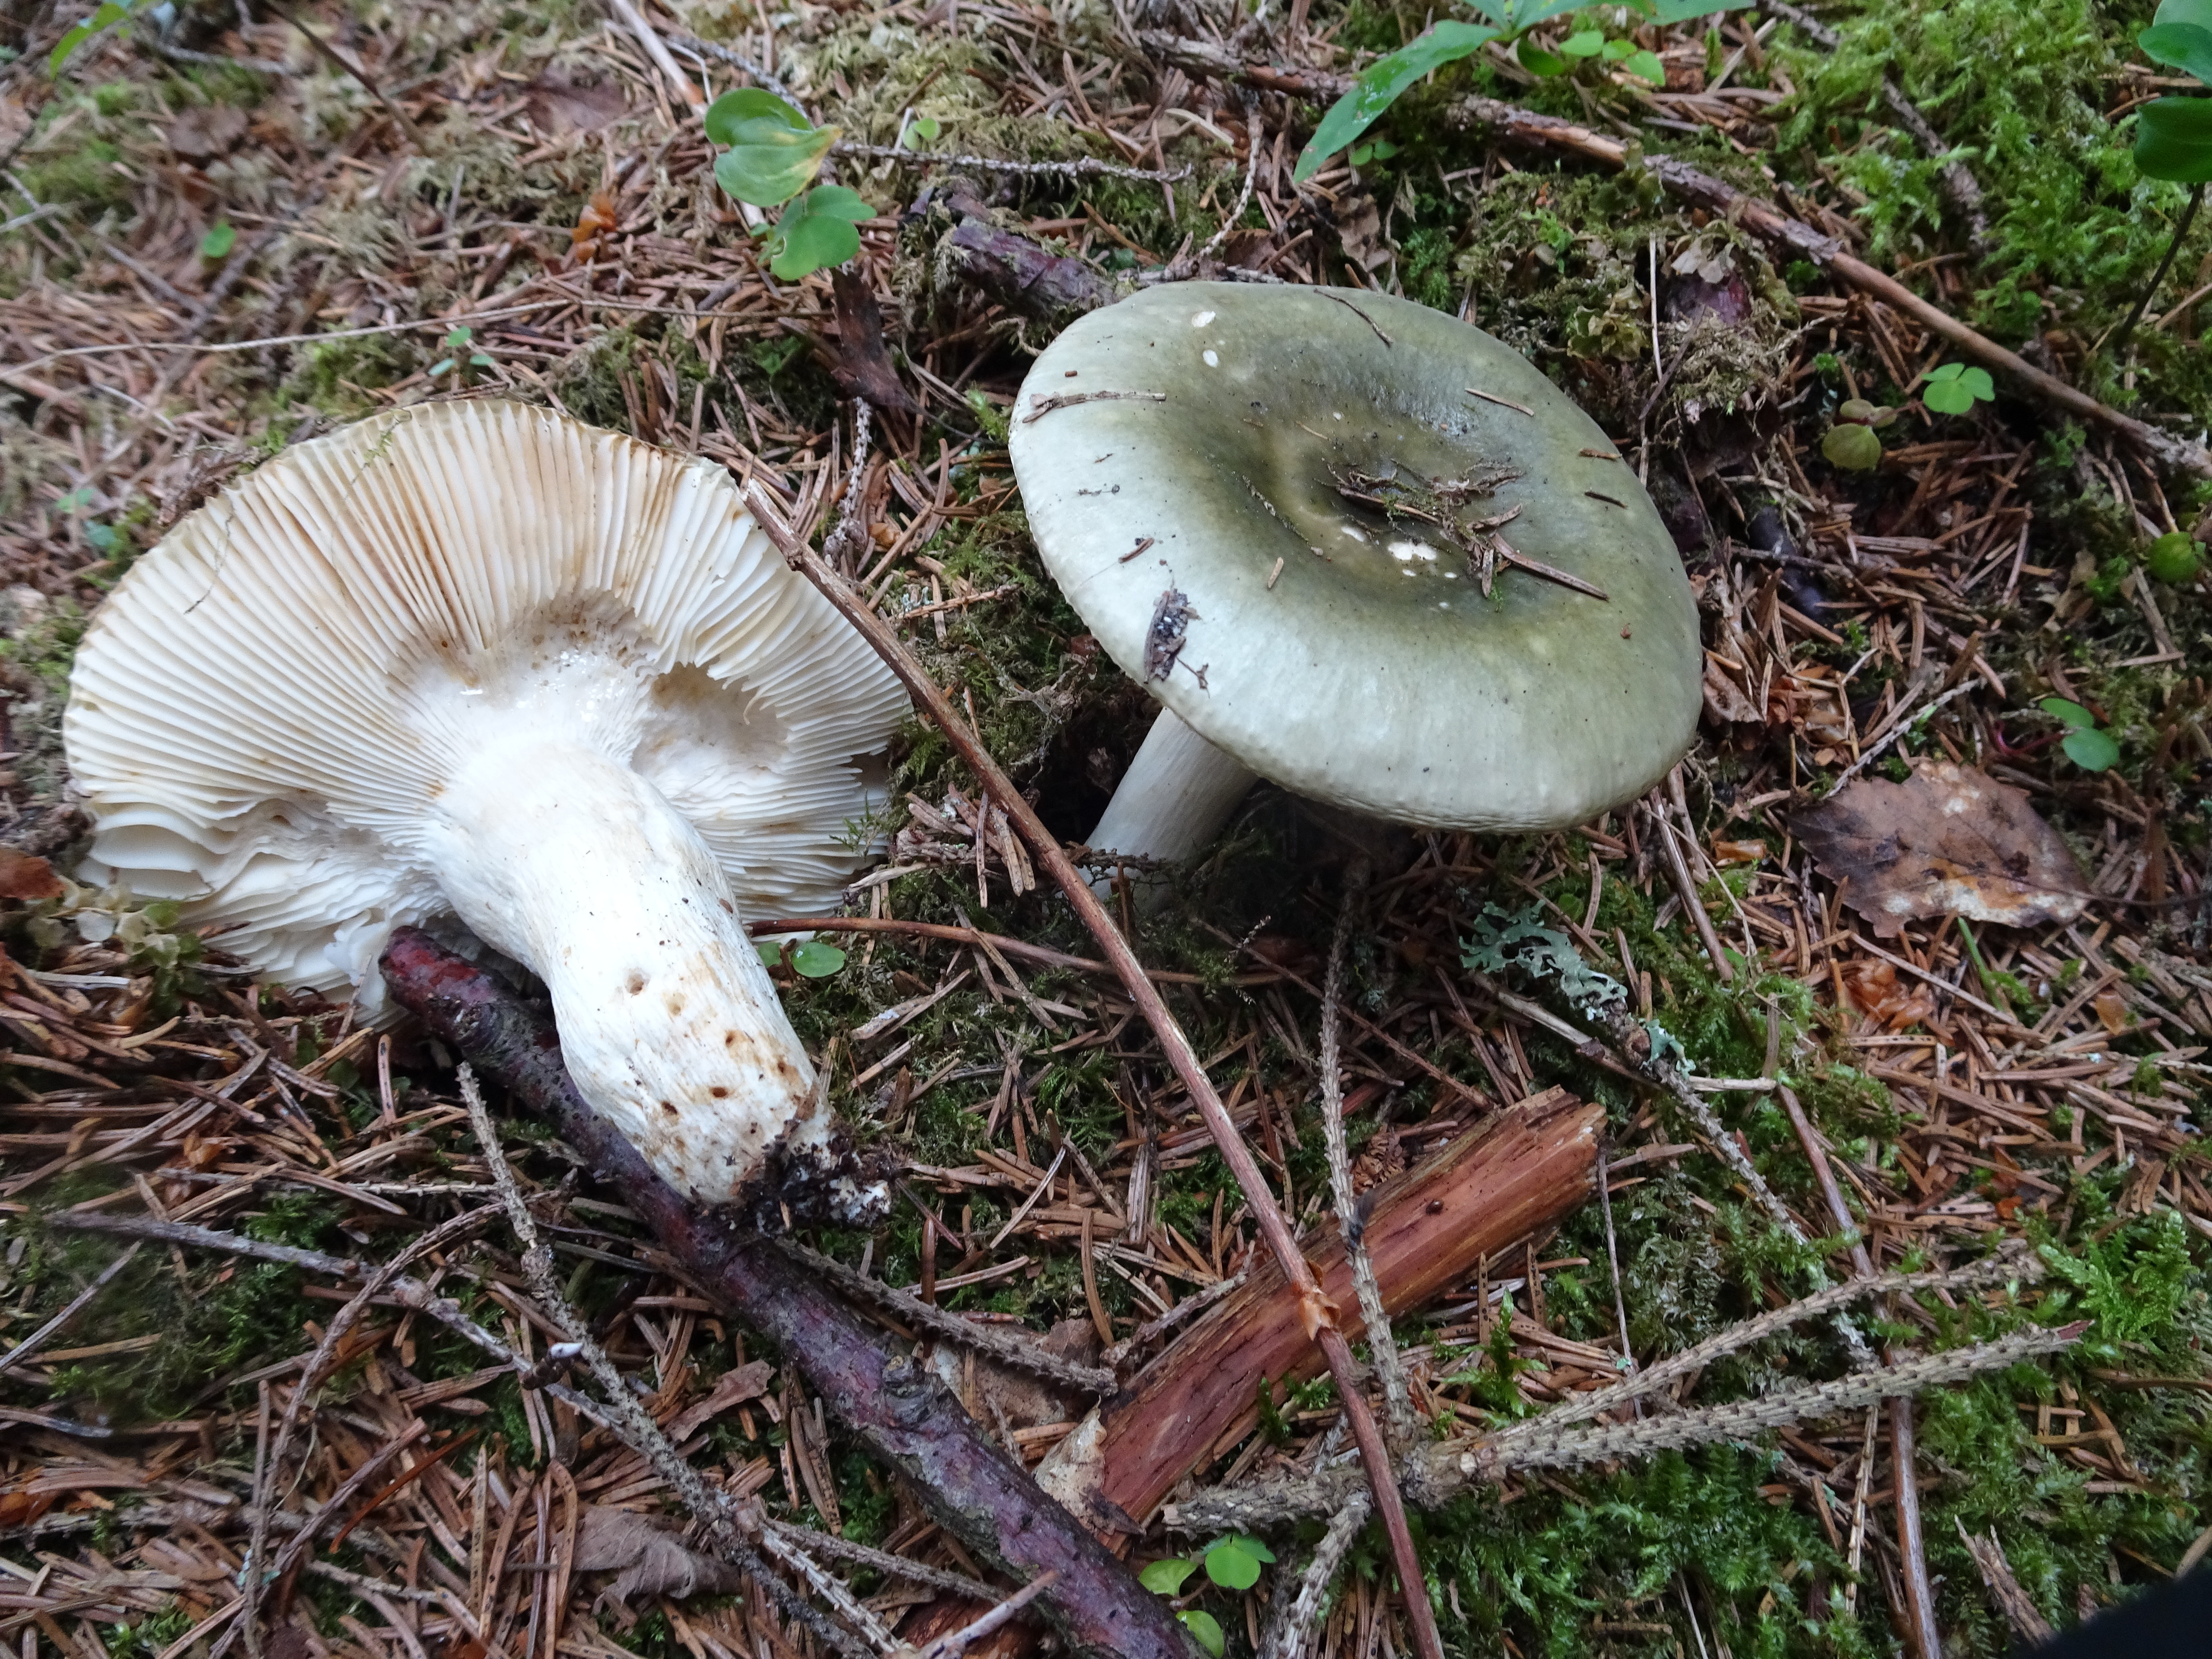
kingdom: Fungi
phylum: Basidiomycota
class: Agaricomycetes
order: Russulales
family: Russulaceae
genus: Russula
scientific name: Russula aeruginea
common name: Green brittlegill
